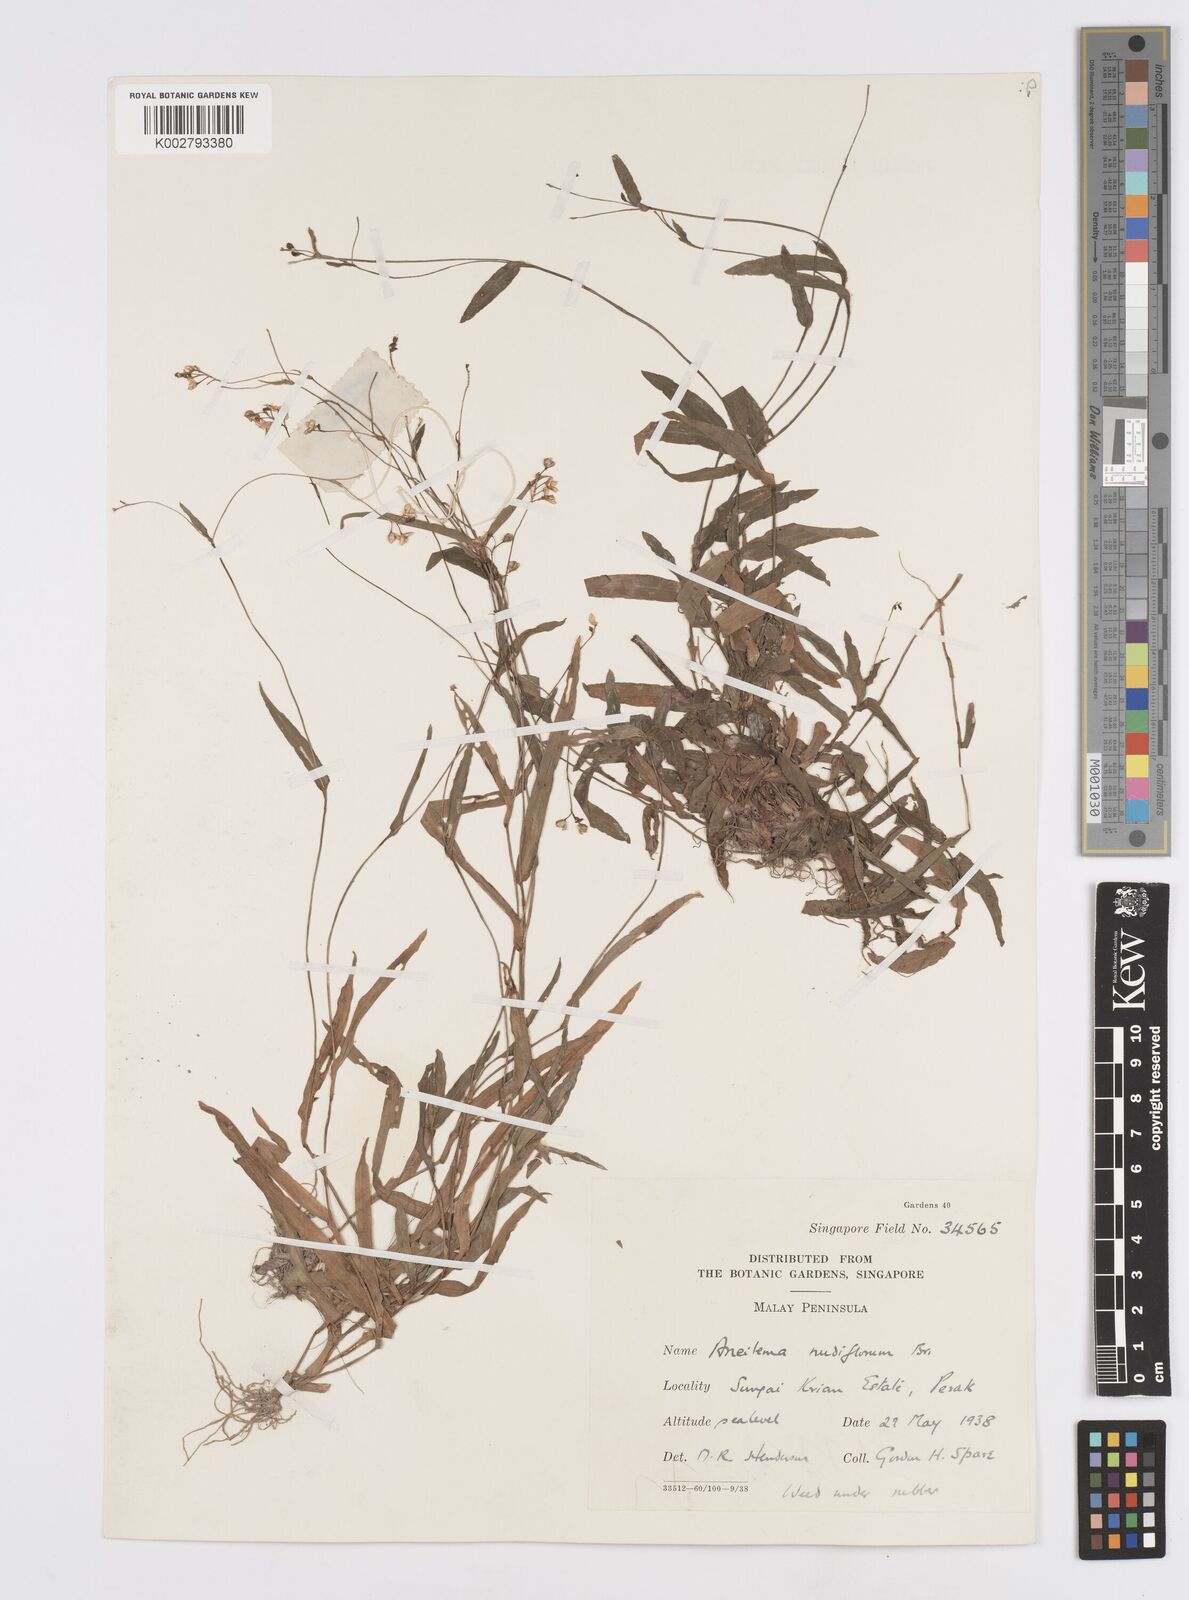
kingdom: Plantae
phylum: Tracheophyta
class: Liliopsida
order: Commelinales
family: Commelinaceae
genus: Murdannia
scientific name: Murdannia
